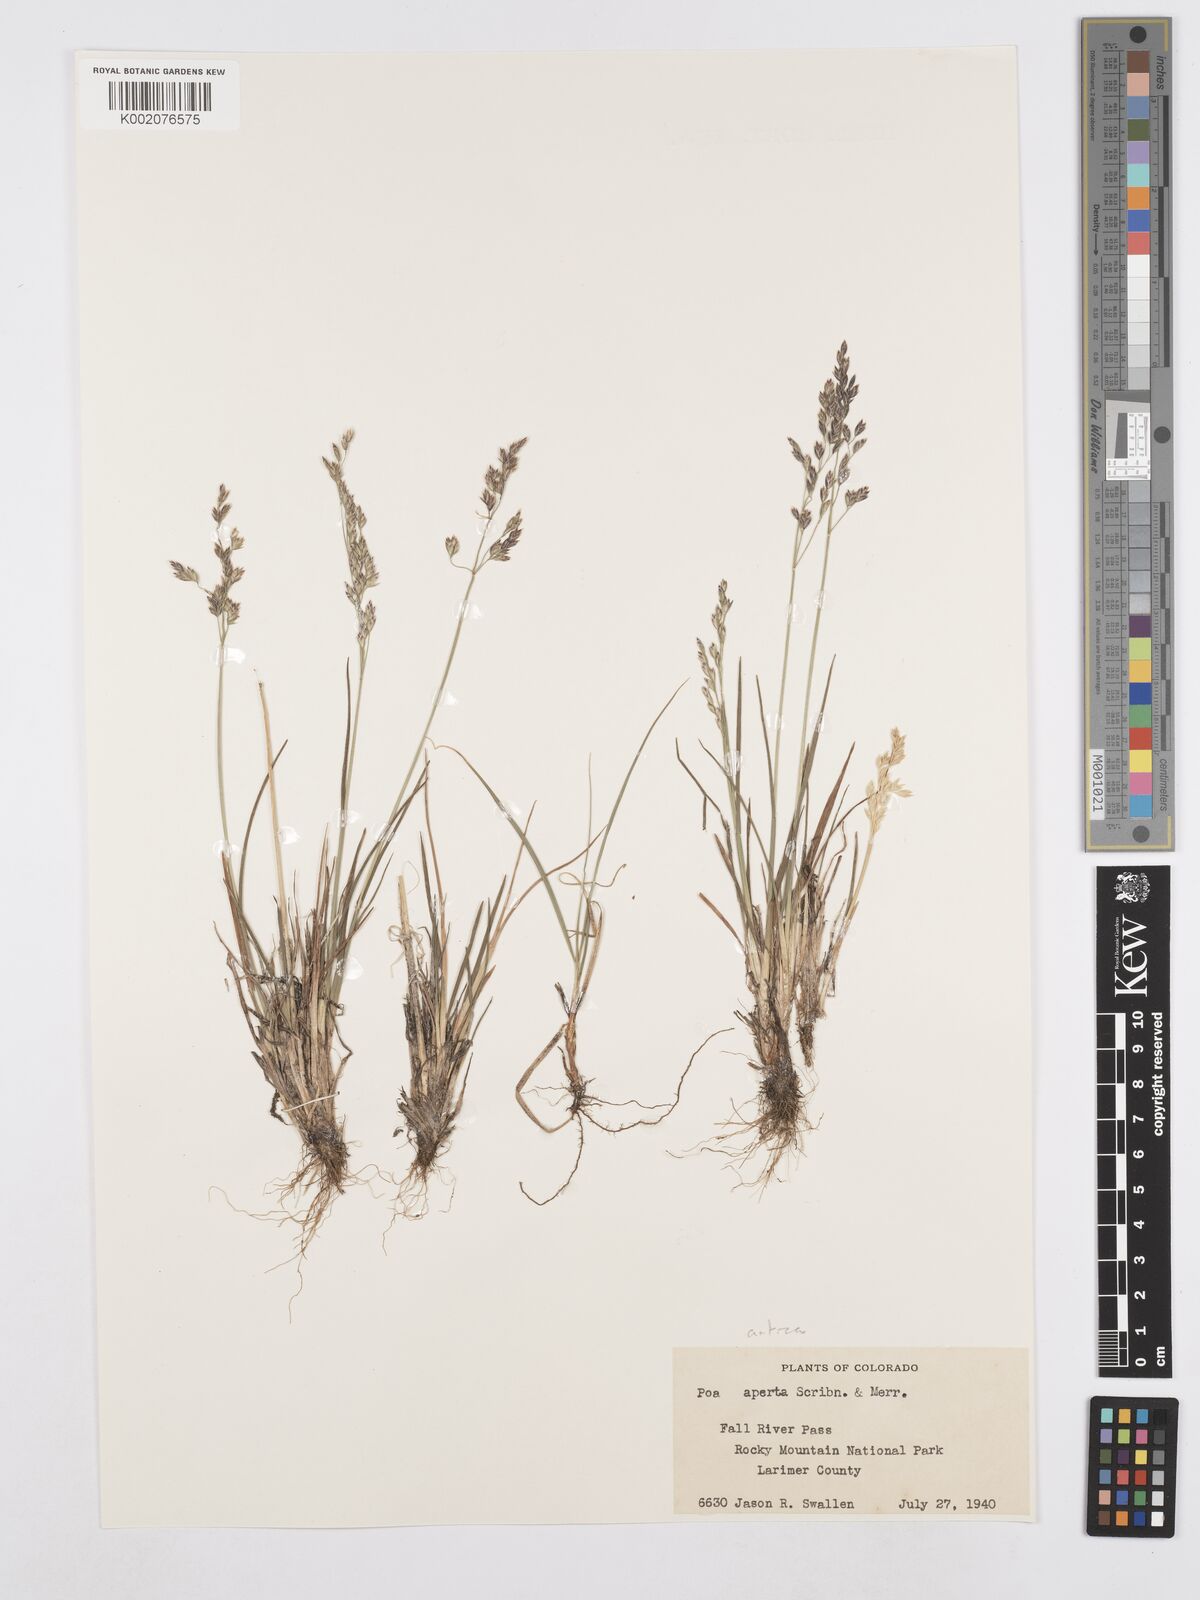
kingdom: Plantae
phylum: Tracheophyta
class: Liliopsida
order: Poales
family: Poaceae
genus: Poa
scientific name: Poa arctica
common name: Arctic bluegrass
